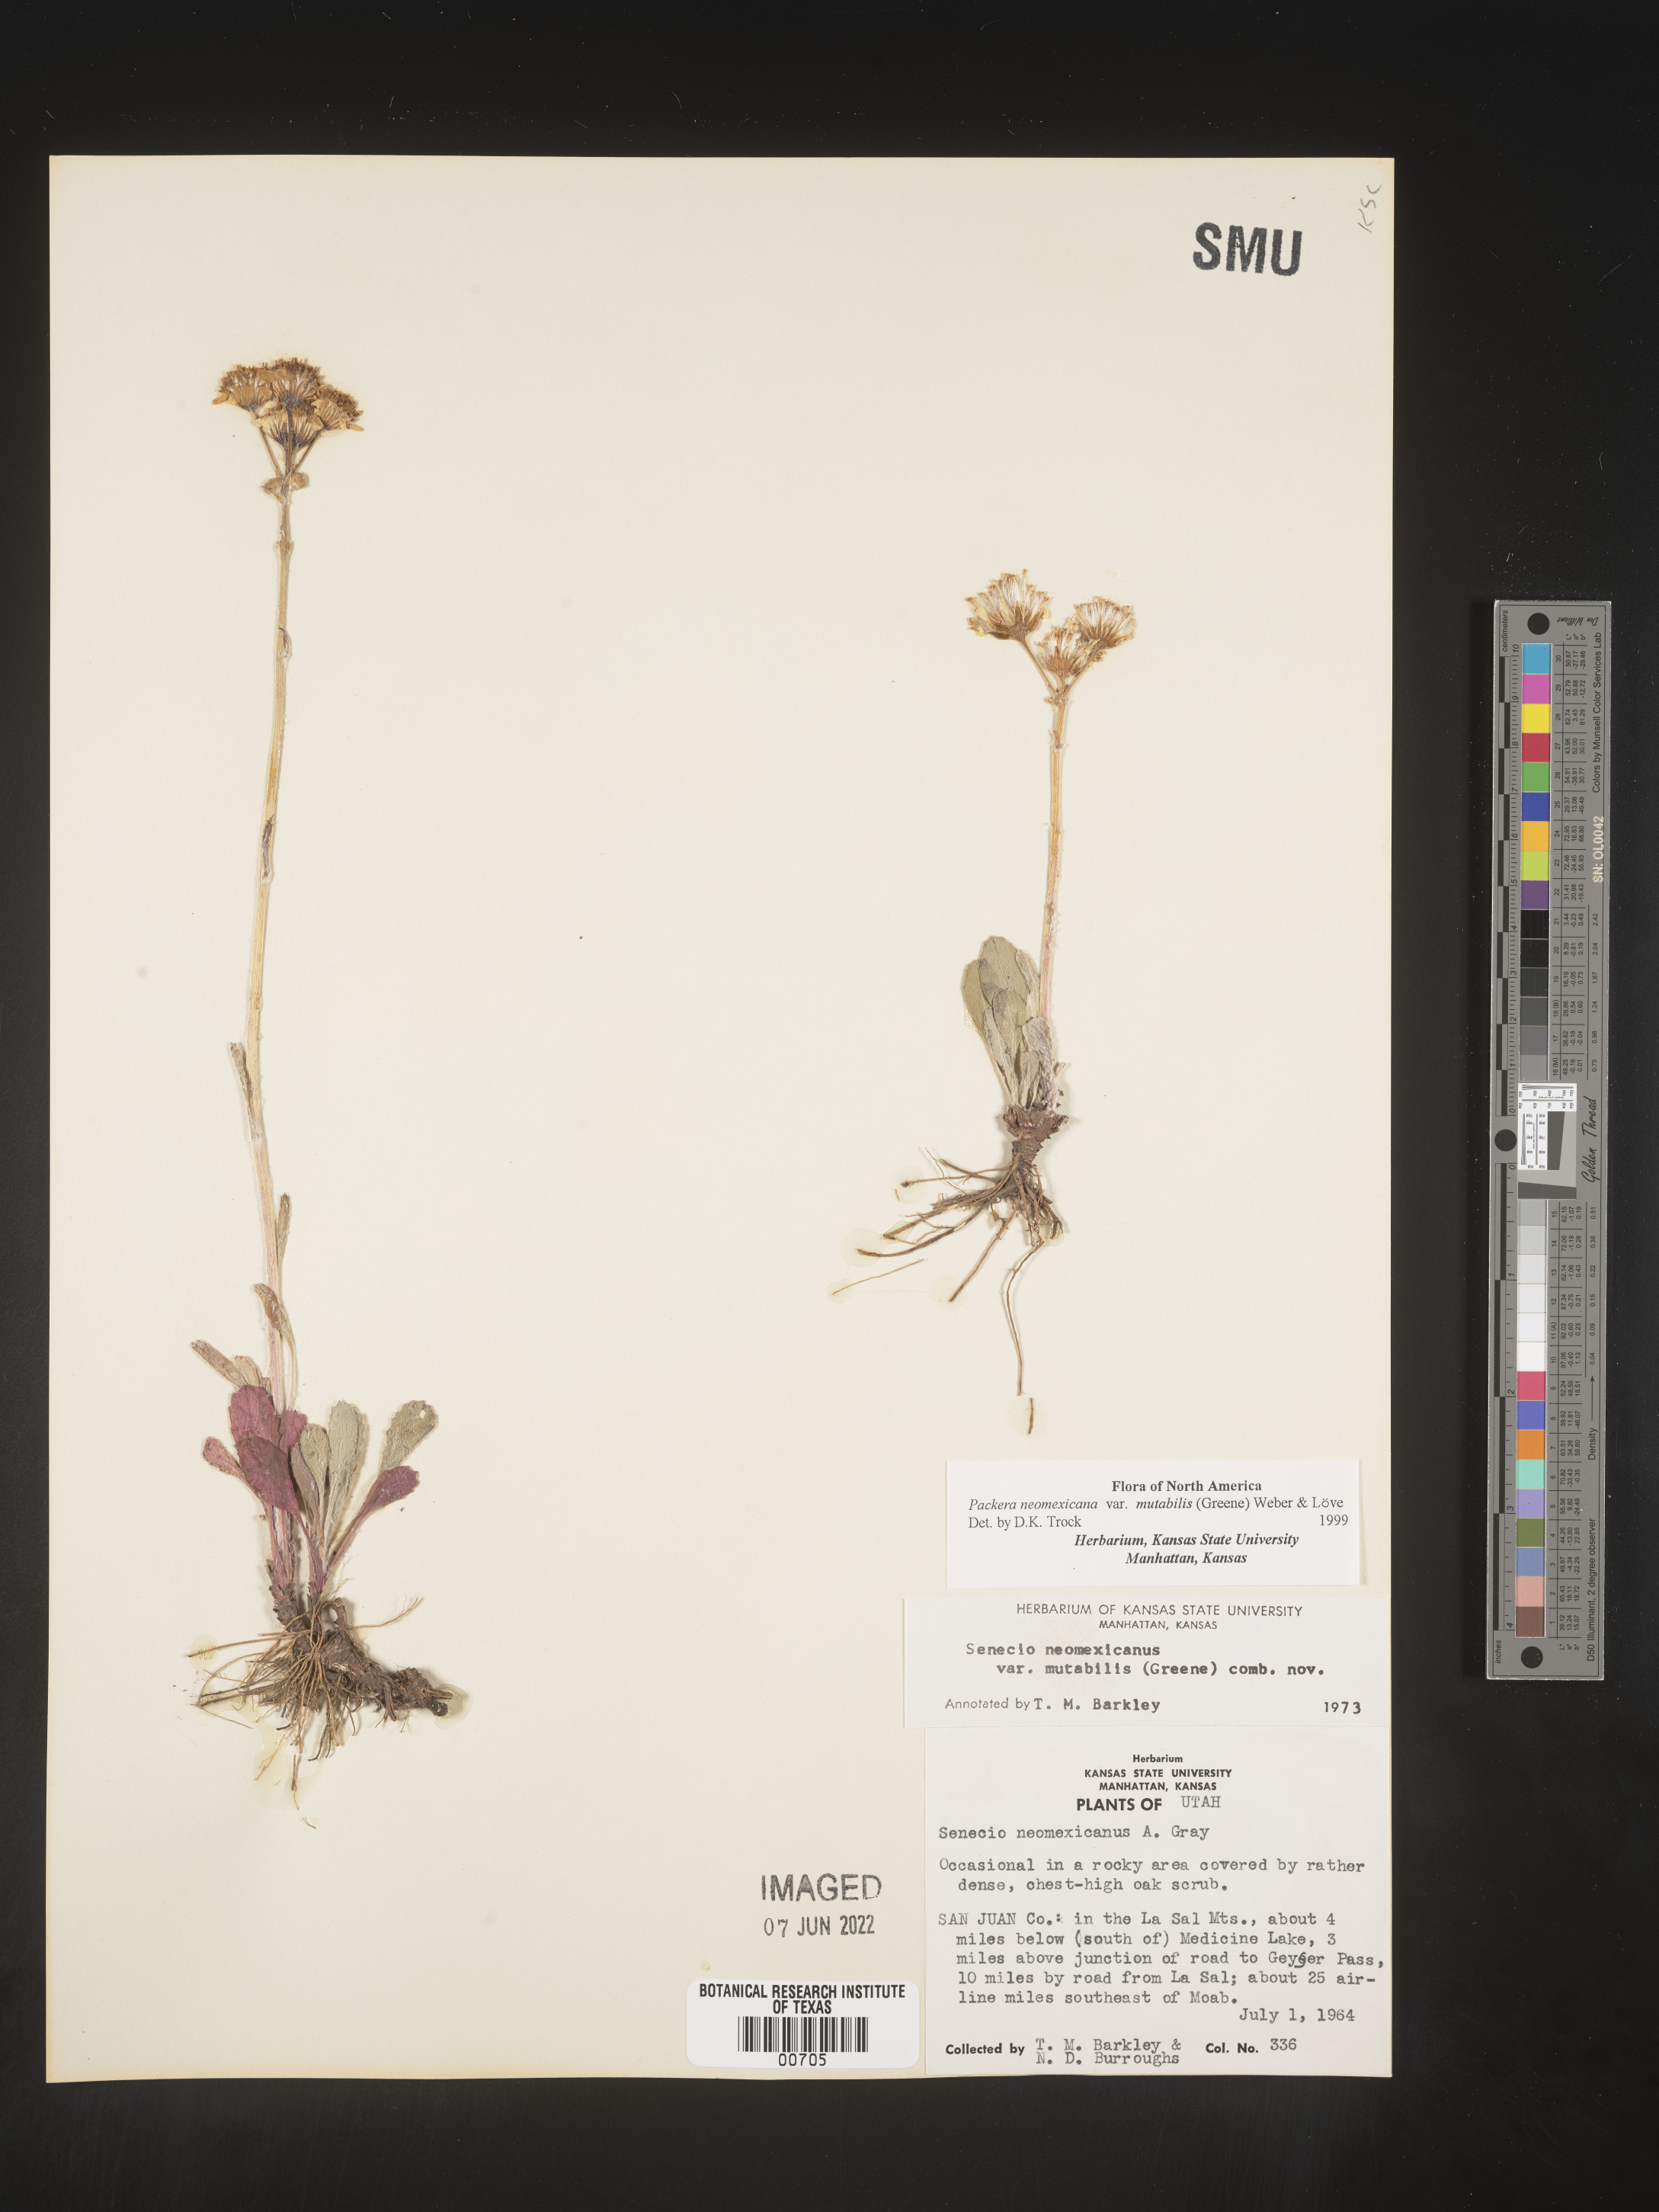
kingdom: Plantae
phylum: Tracheophyta
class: Magnoliopsida
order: Asterales
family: Asteraceae
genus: Packera
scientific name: Packera neomexicana
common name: New mexico butterweed
